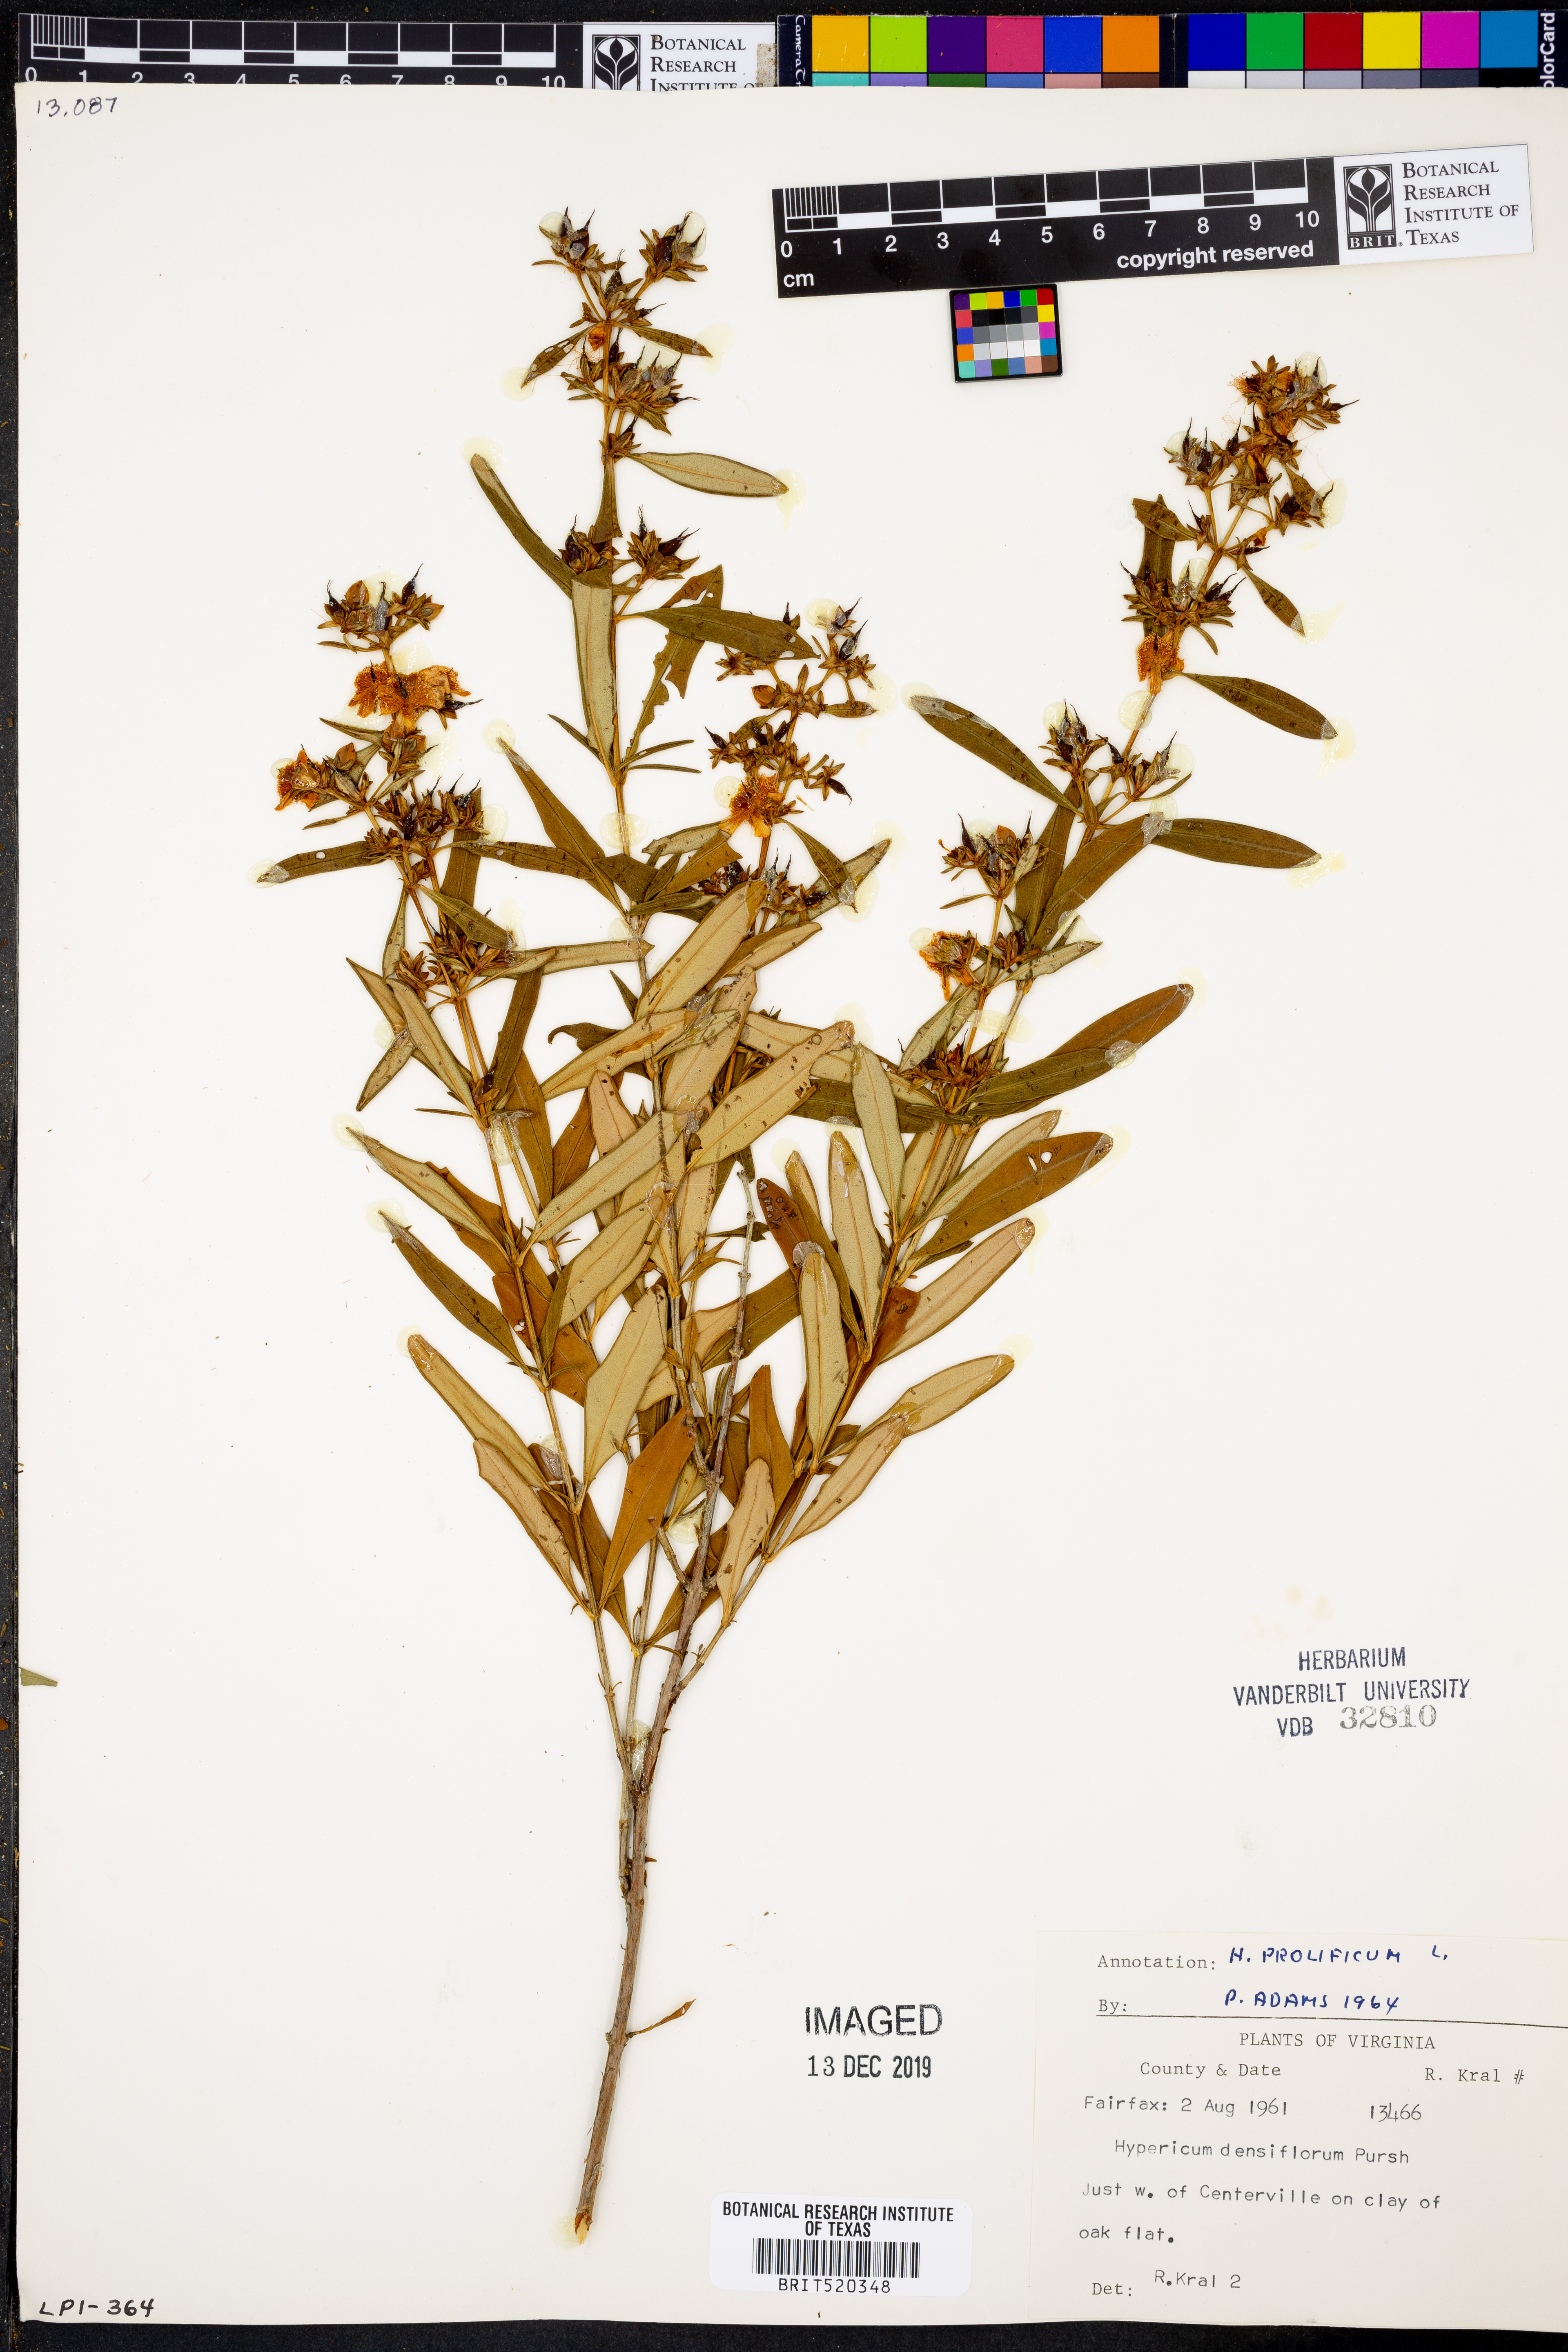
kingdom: Plantae
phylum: Tracheophyta
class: Magnoliopsida
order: Malpighiales
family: Hypericaceae
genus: Hypericum
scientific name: Hypericum prolificum
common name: Shrubby st. john's-wort
